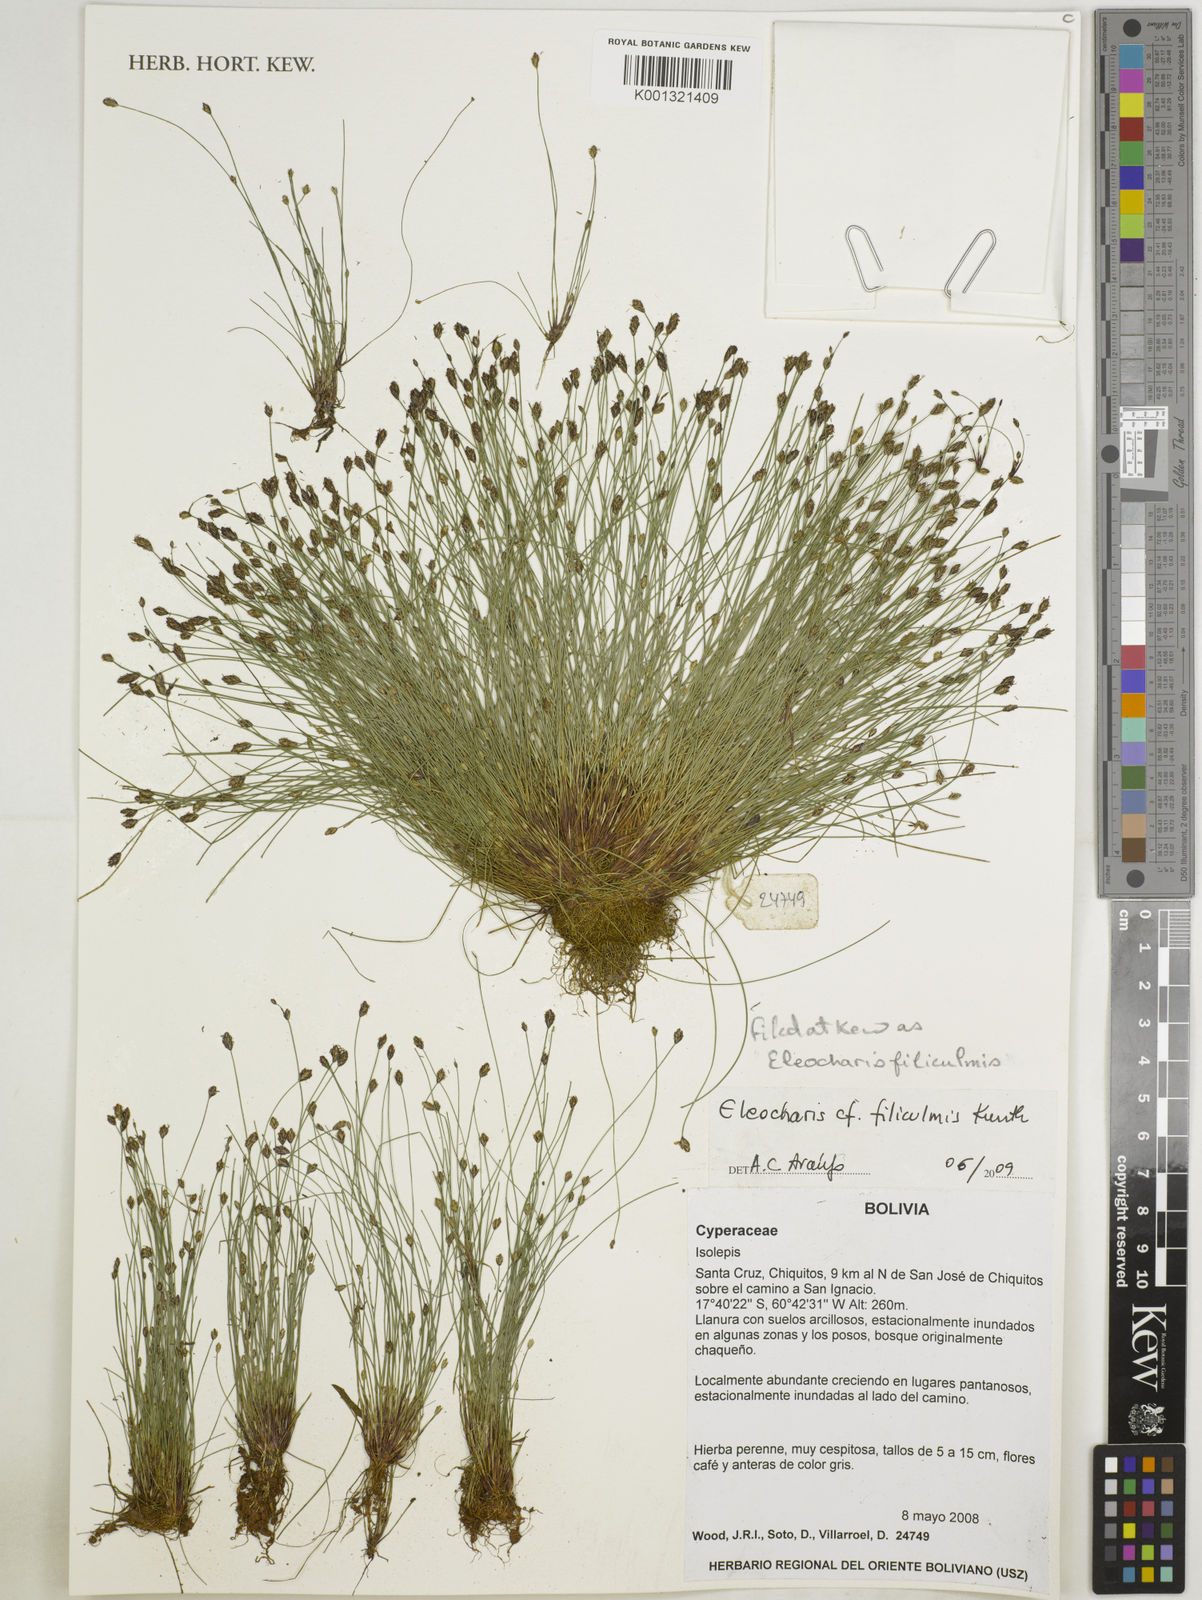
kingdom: Plantae
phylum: Tracheophyta
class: Liliopsida
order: Poales
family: Cyperaceae
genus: Eleocharis
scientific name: Eleocharis filiculmis
